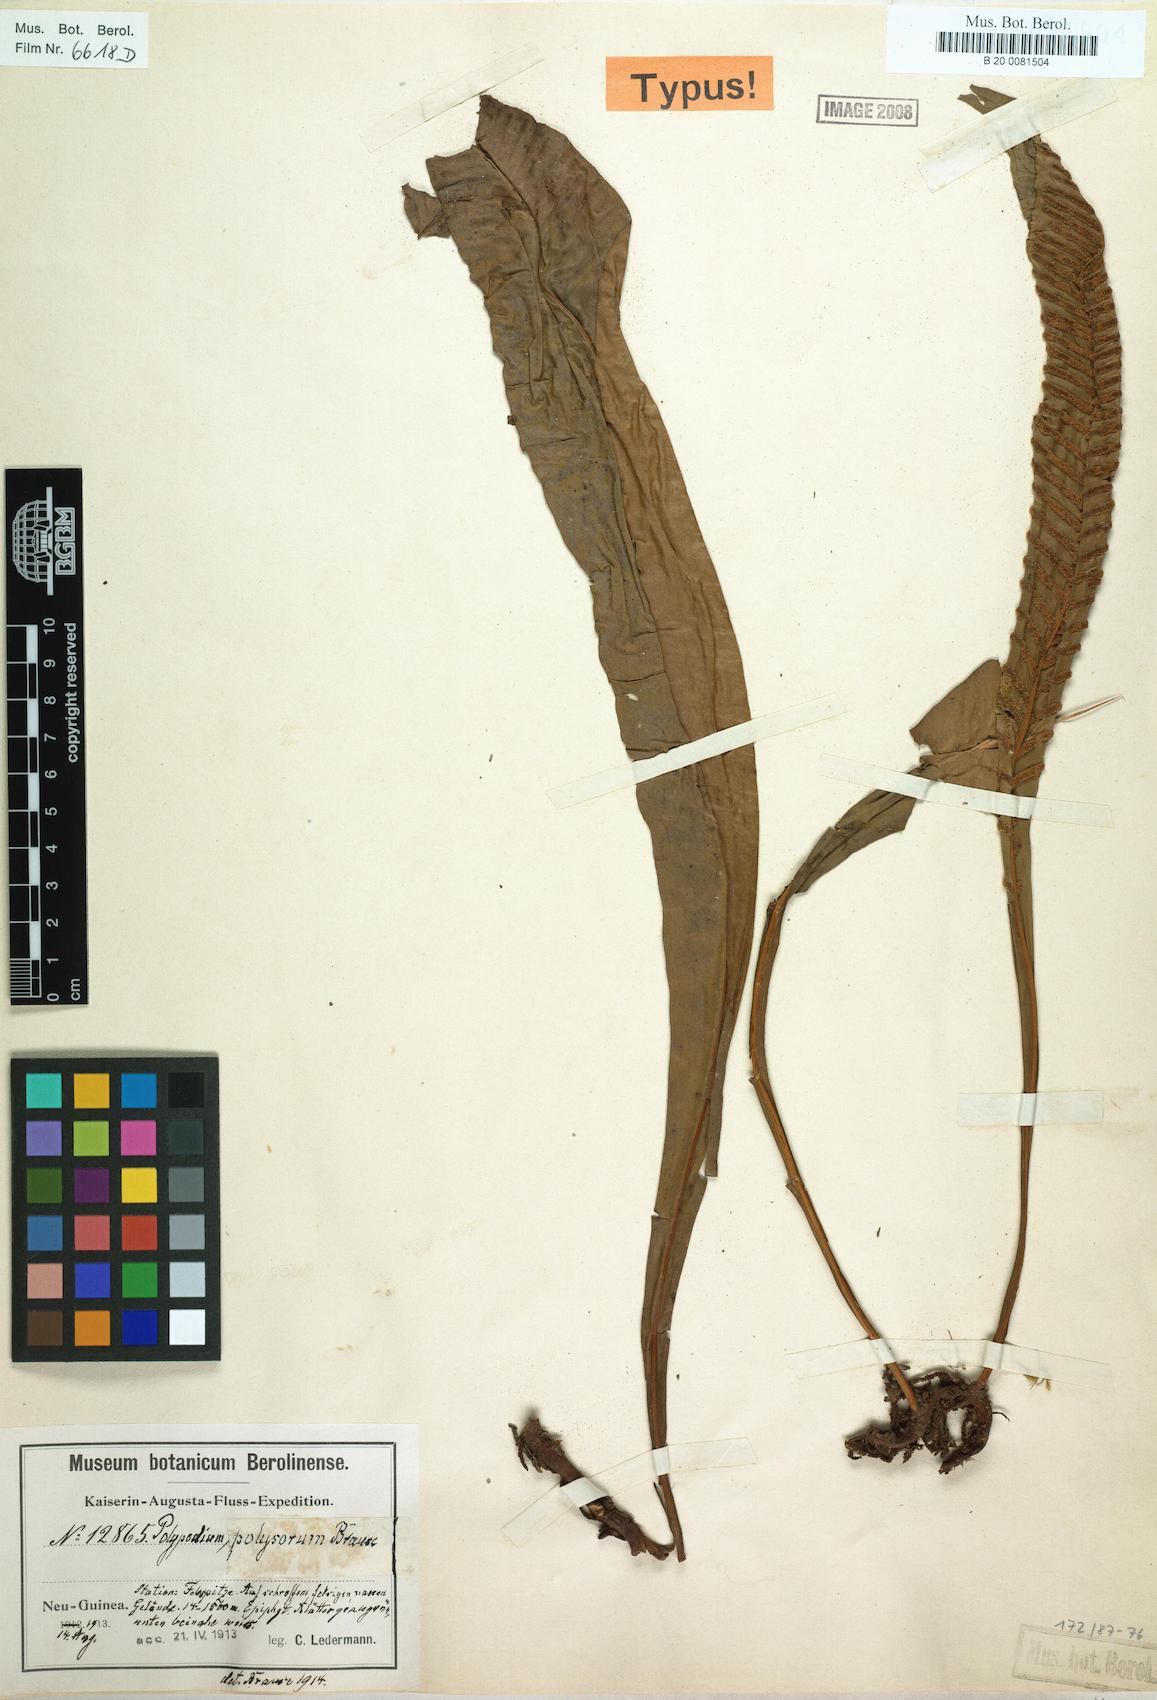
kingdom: Plantae
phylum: Tracheophyta
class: Polypodiopsida
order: Polypodiales
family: Polypodiaceae
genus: Leptochilus
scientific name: Leptochilus macrophyllus
